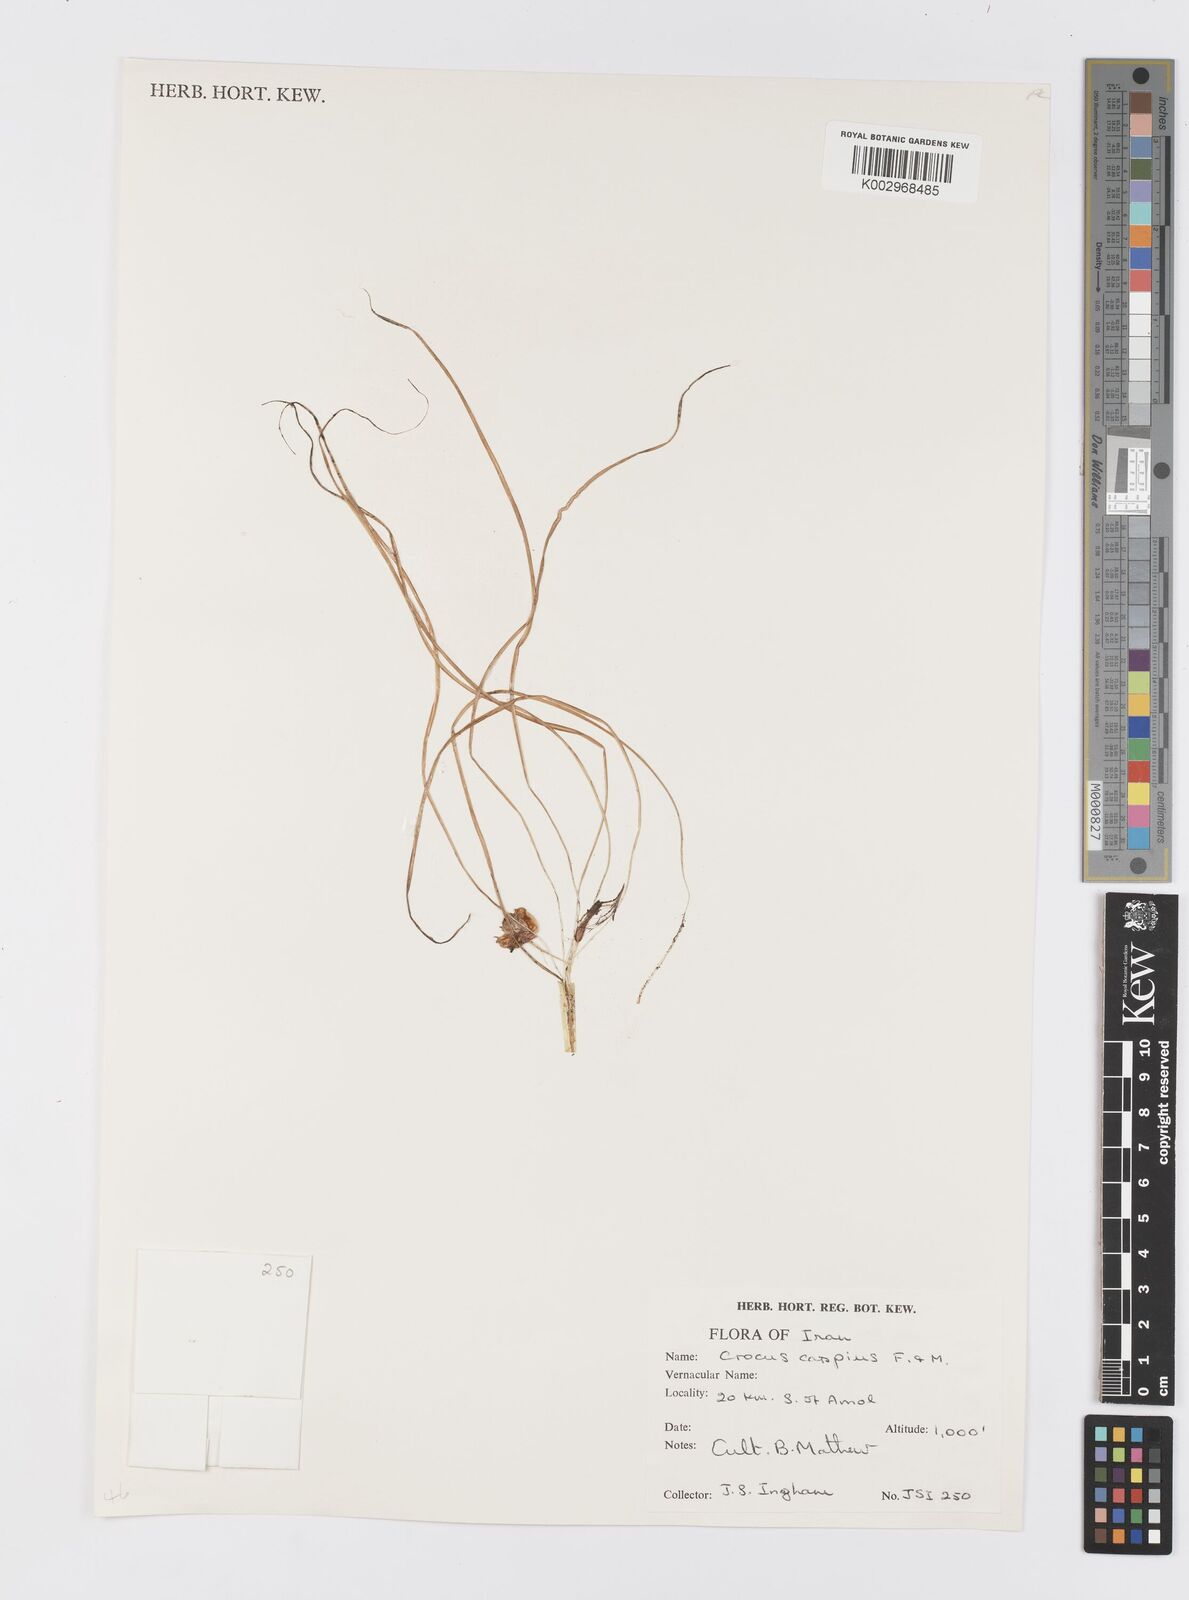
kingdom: Plantae
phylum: Tracheophyta
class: Liliopsida
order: Asparagales
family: Iridaceae
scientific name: Iridaceae
